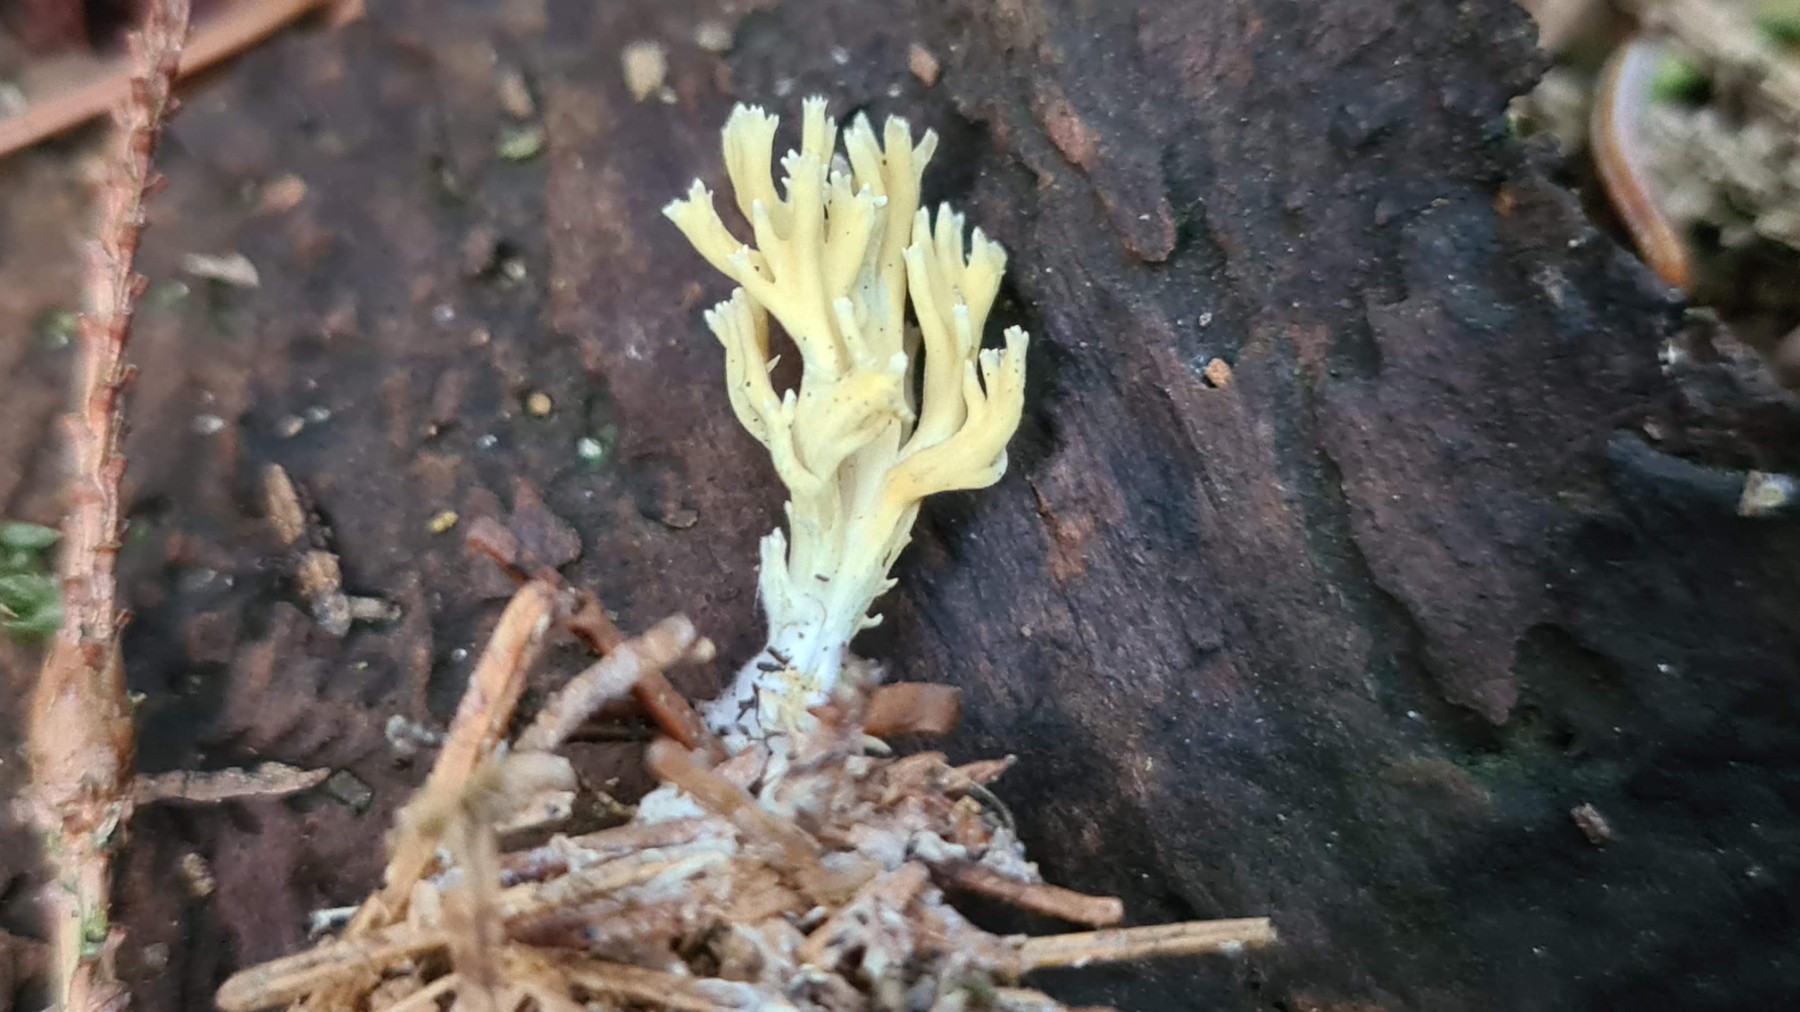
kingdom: Fungi
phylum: Basidiomycota
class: Agaricomycetes
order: Gomphales
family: Gomphaceae
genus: Phaeoclavulina
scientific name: Phaeoclavulina abietina
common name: gulgrøn koralsvamp
